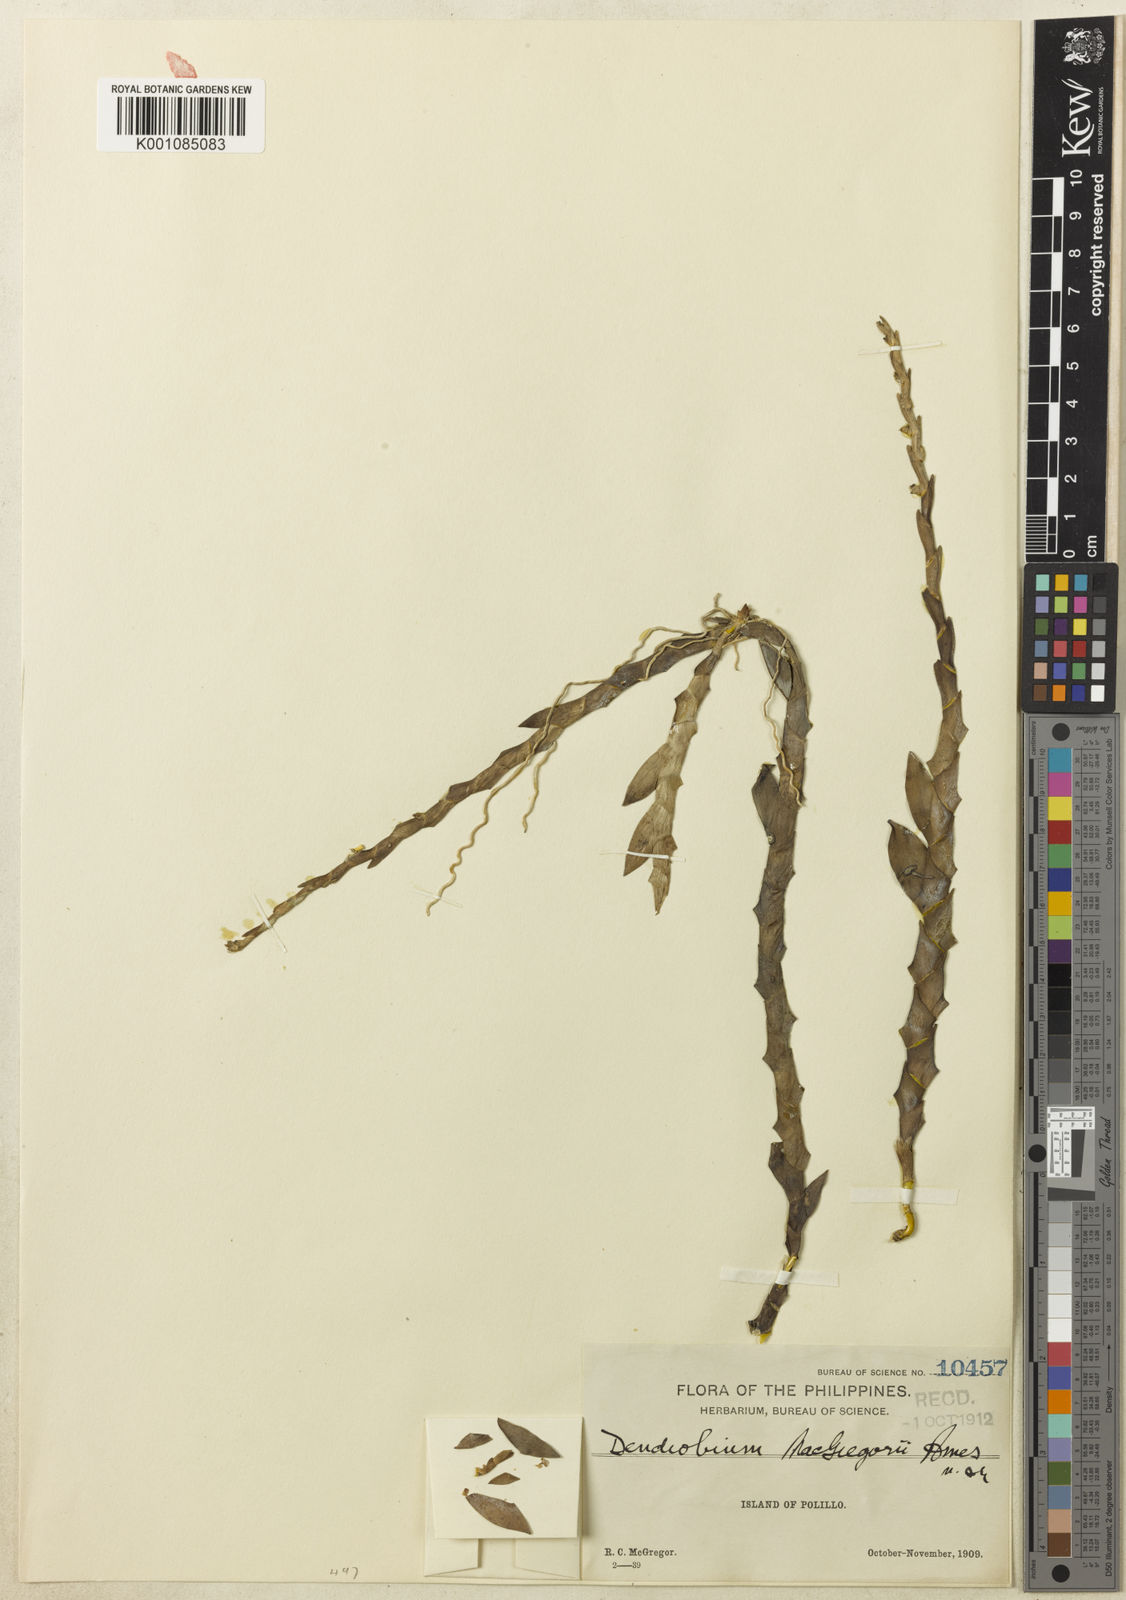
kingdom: Plantae
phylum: Tracheophyta
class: Liliopsida
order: Asparagales
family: Orchidaceae
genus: Dendrobium
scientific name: Dendrobium quisumbingii
